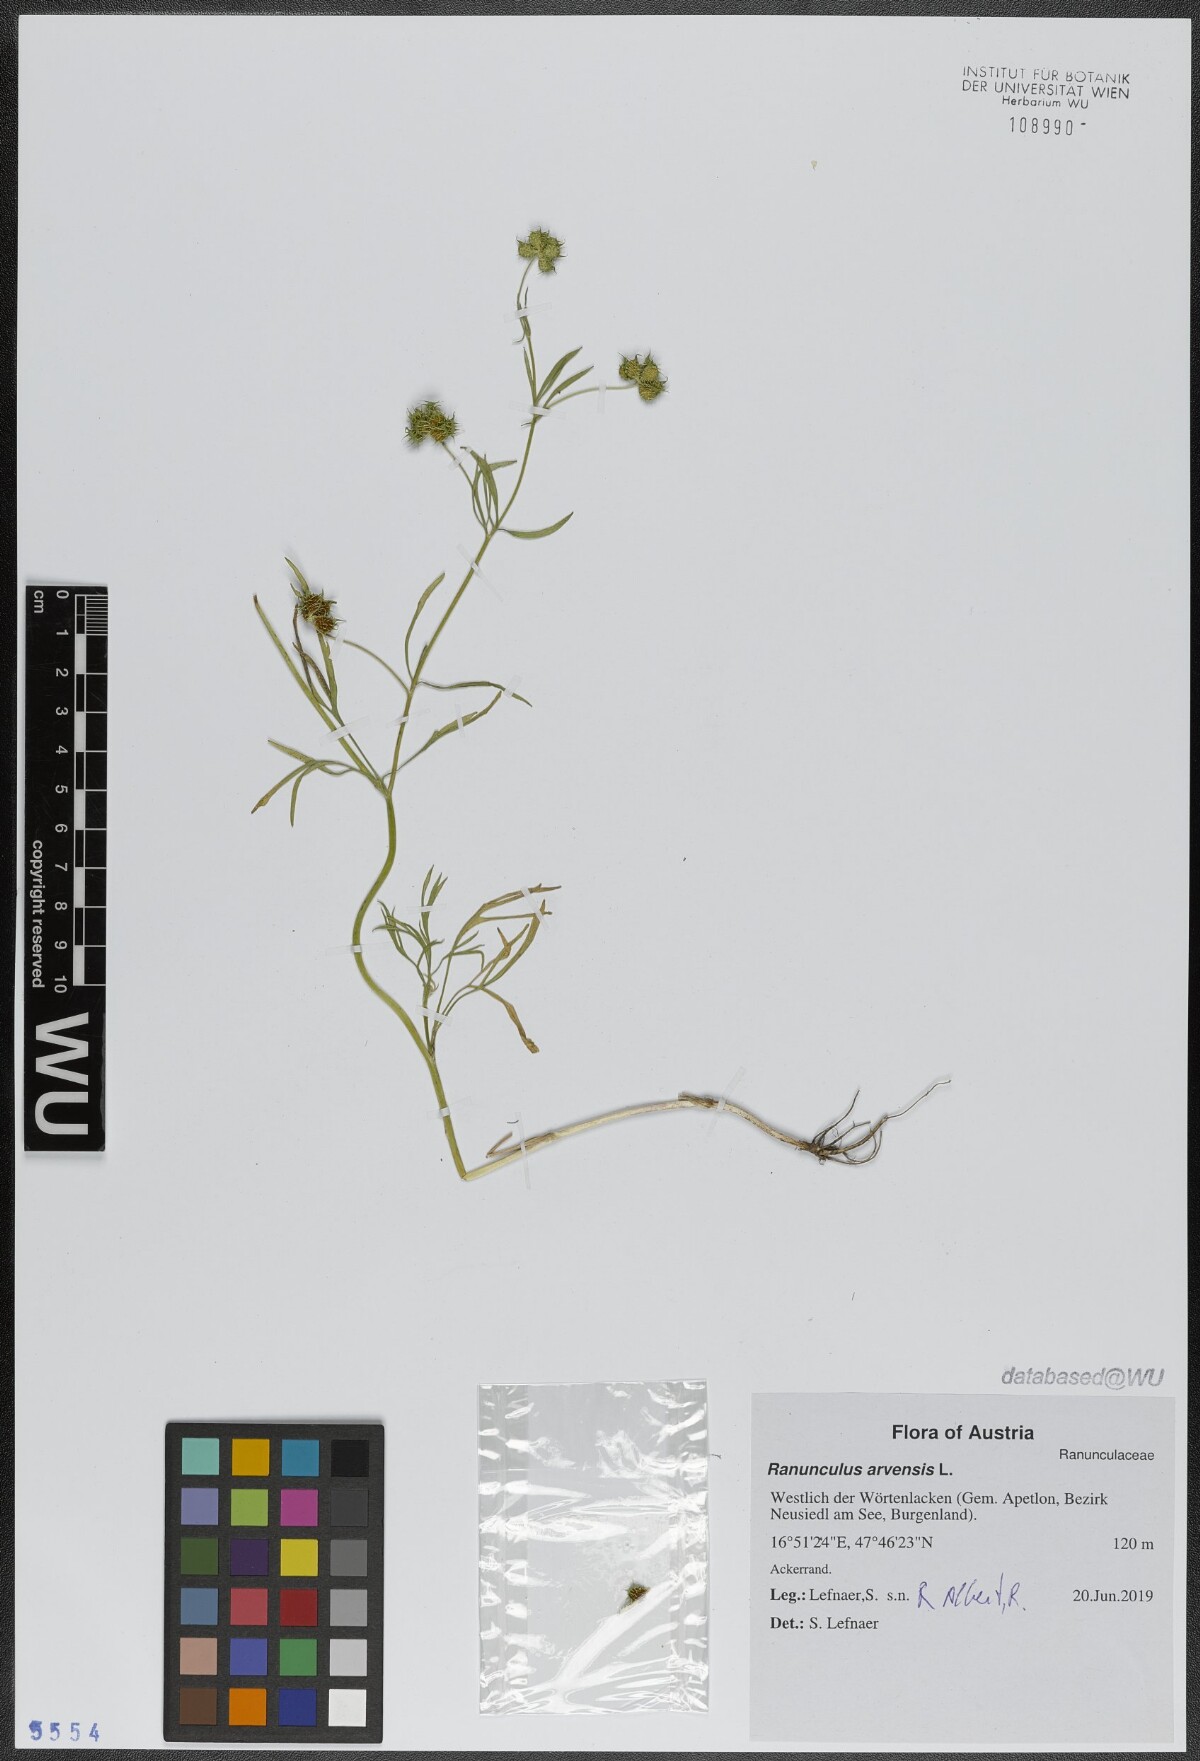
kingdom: Plantae
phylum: Tracheophyta
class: Magnoliopsida
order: Ranunculales
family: Ranunculaceae
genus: Ranunculus
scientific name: Ranunculus arvensis
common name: Corn buttercup
